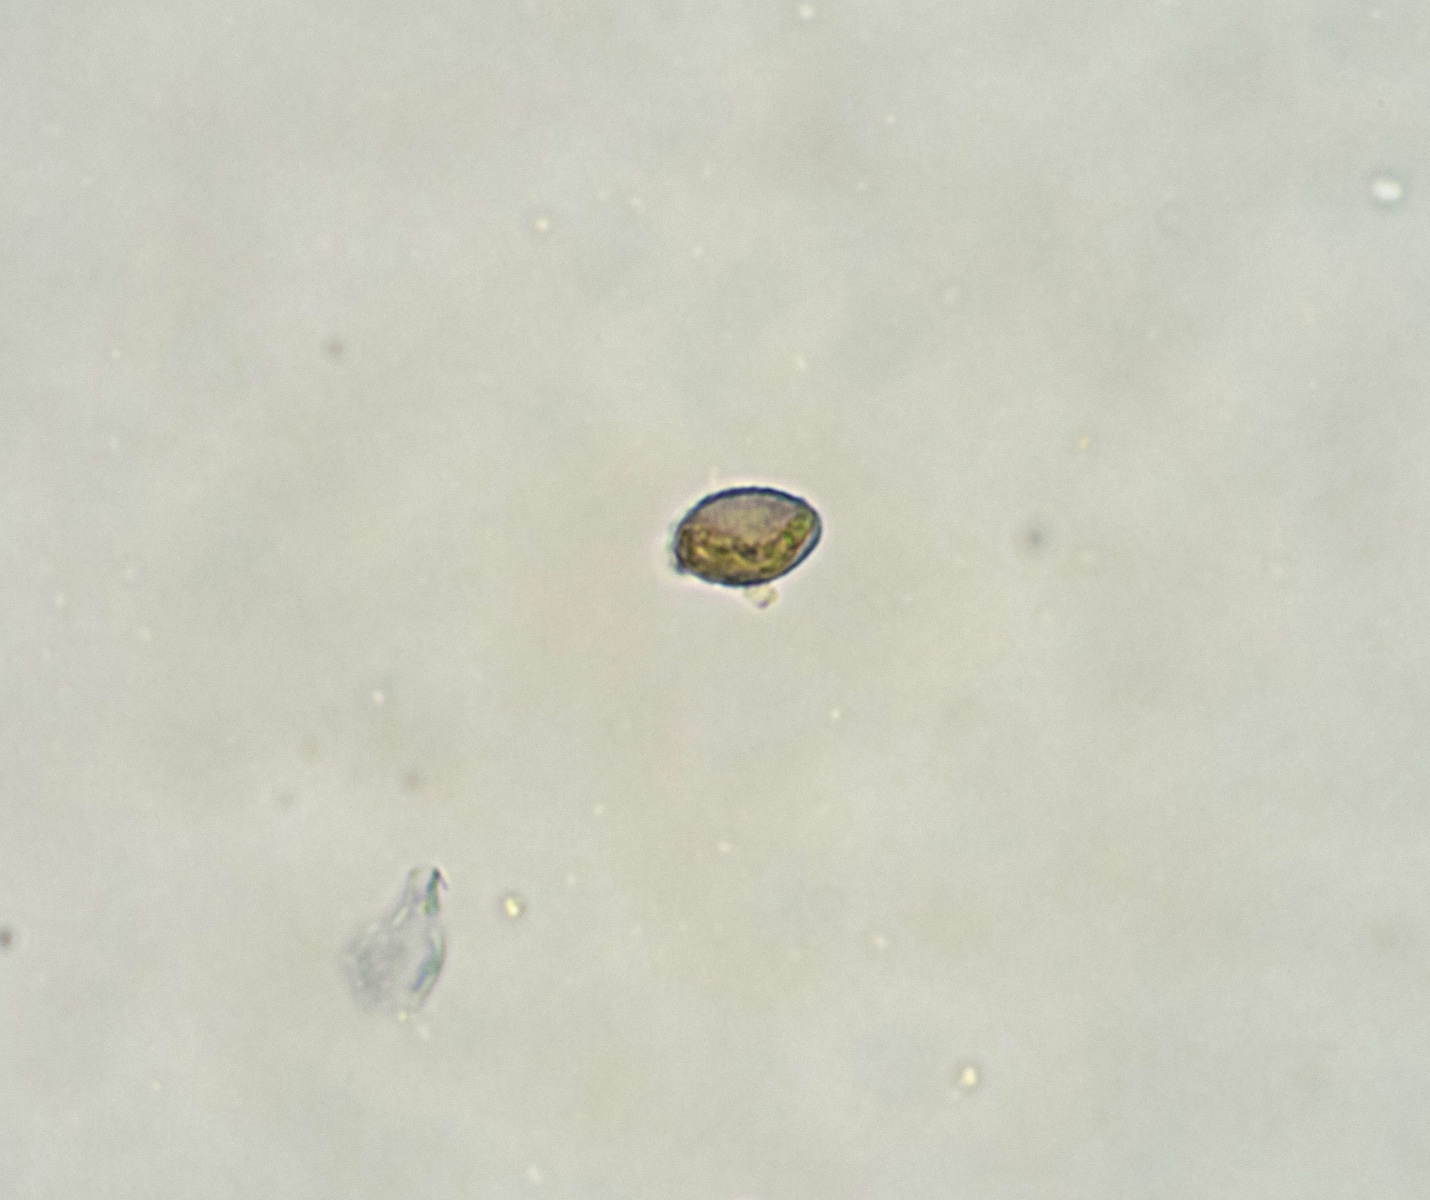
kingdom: Fungi
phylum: Basidiomycota
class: Agaricomycetes
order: Russulales
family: Stereaceae
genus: Acanthobasidium
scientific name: Acanthobasidium norvegicum
